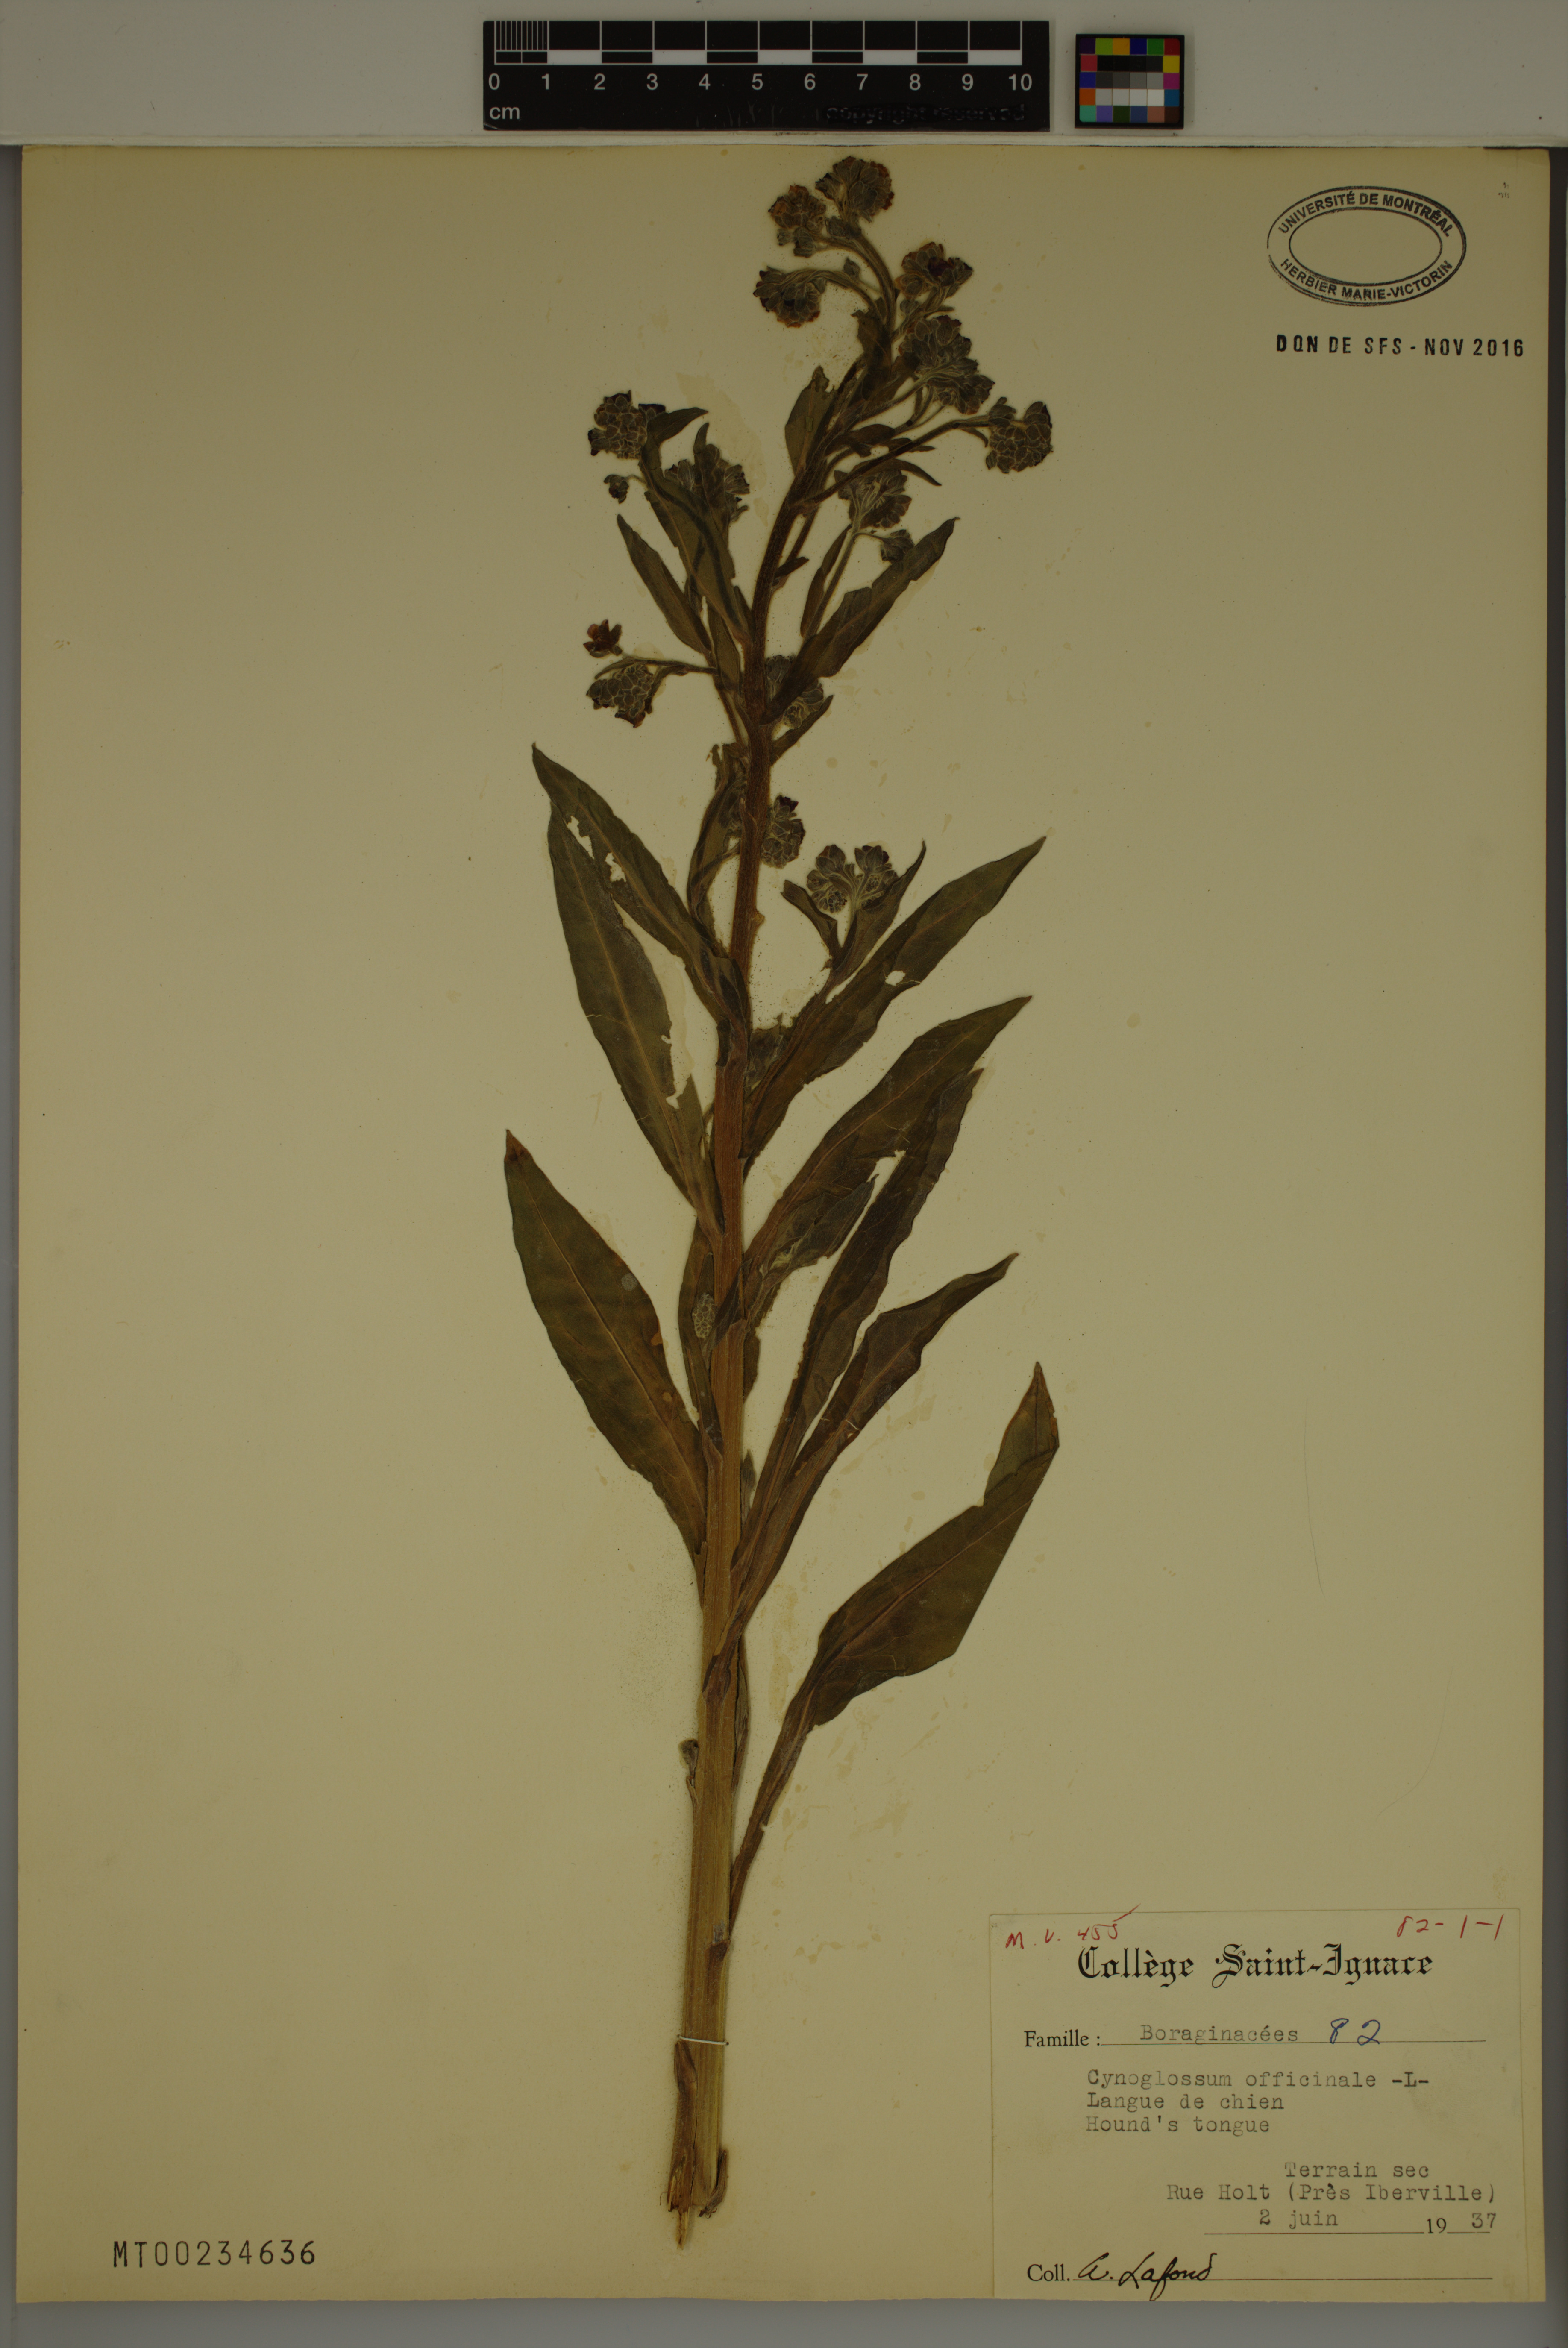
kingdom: Plantae
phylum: Tracheophyta
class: Magnoliopsida
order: Boraginales
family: Boraginaceae
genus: Cynoglossum
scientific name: Cynoglossum officinale
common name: Hound's-tongue
